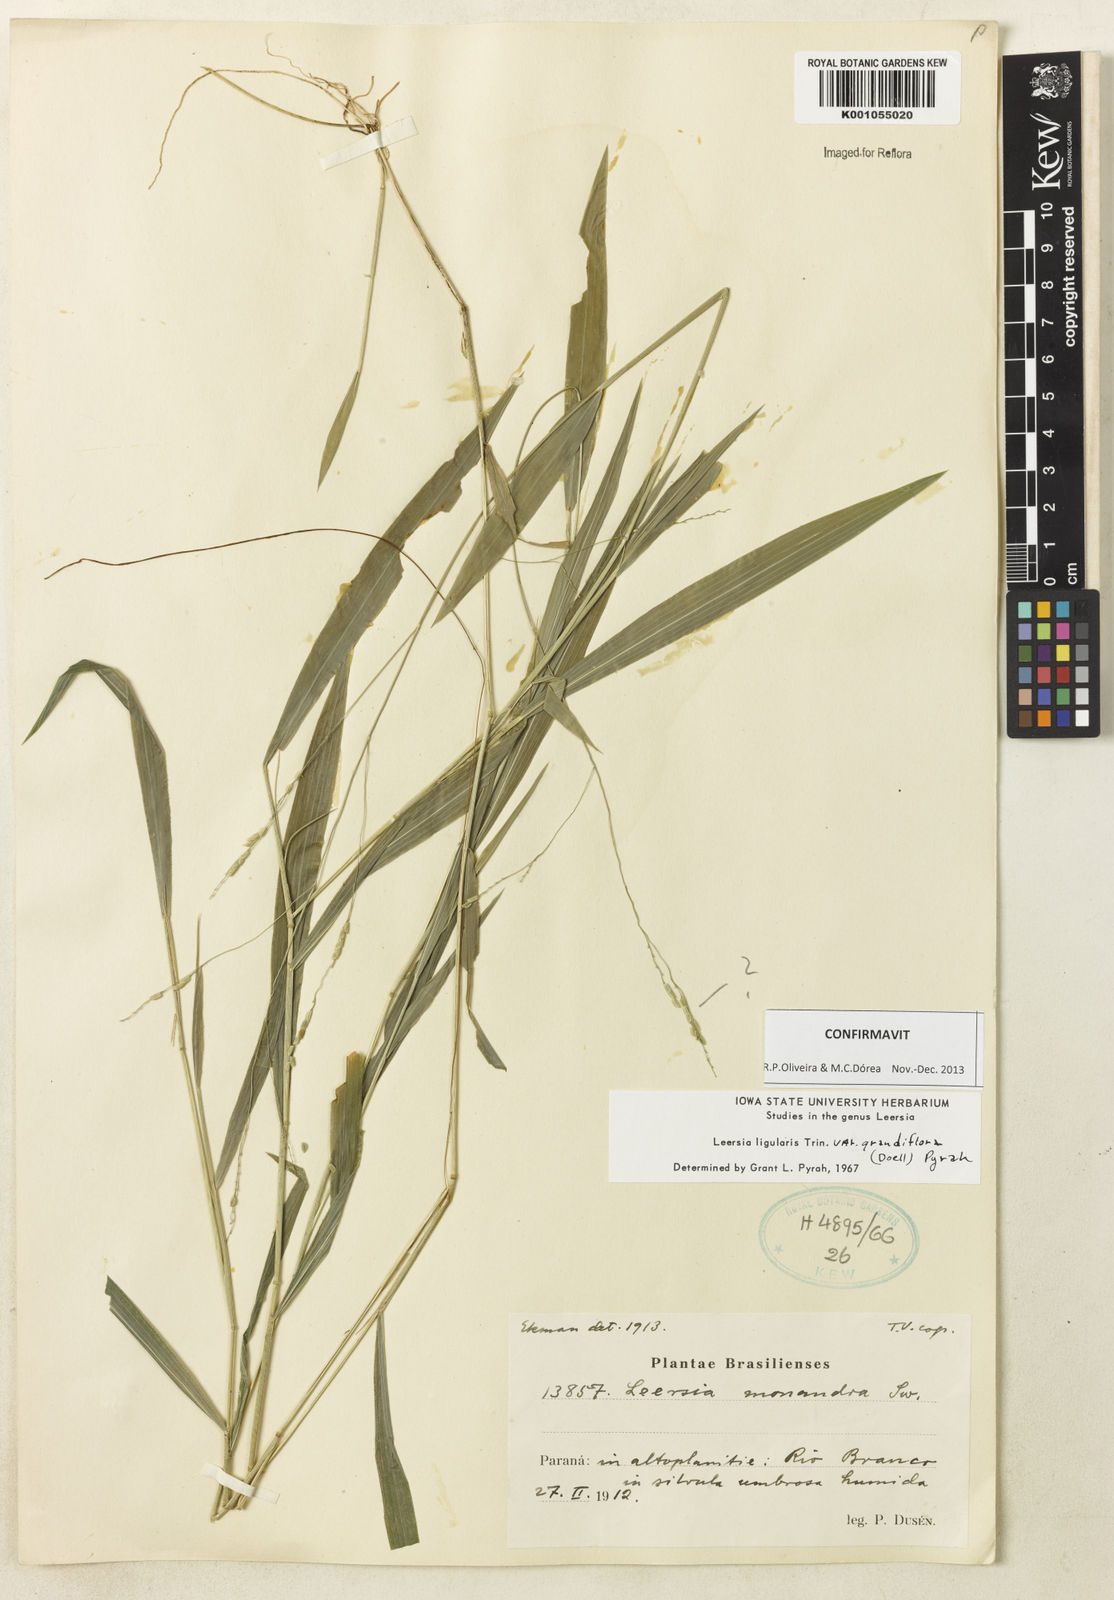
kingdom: Plantae
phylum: Tracheophyta
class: Liliopsida
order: Poales
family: Poaceae
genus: Leersia
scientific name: Leersia ligularis
